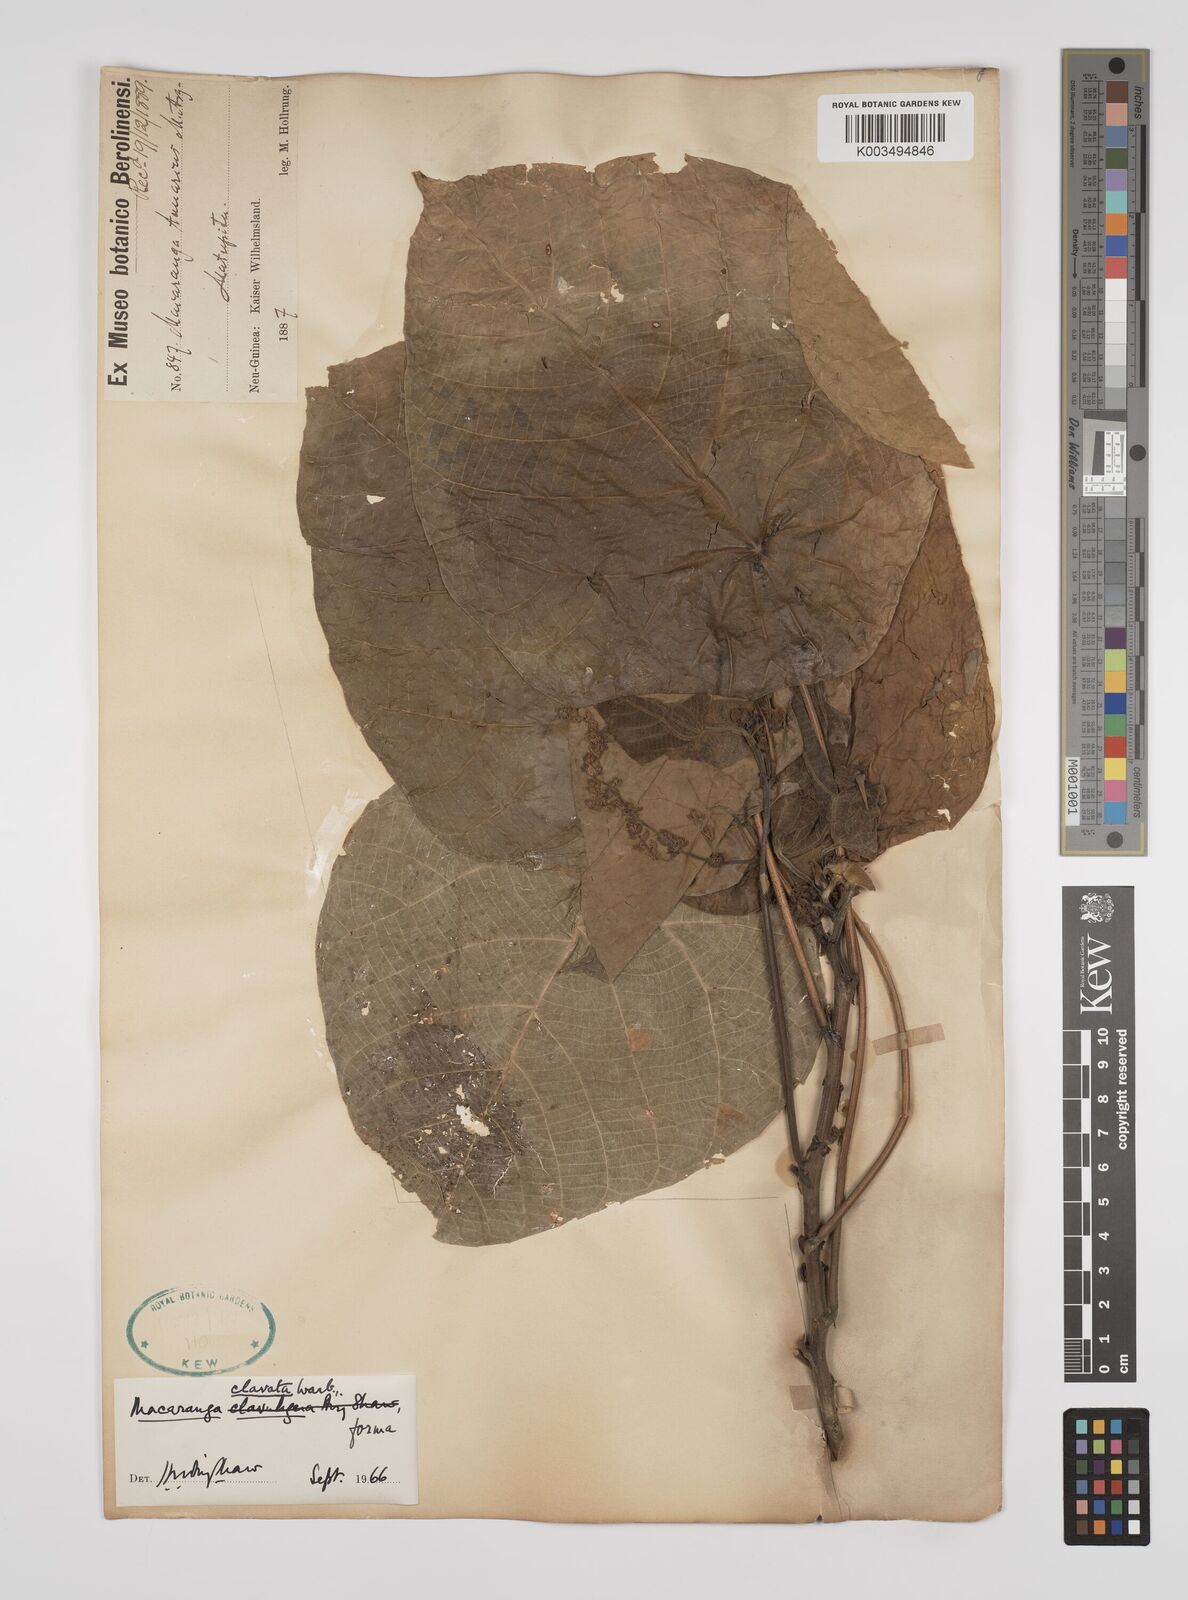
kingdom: Plantae
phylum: Tracheophyta
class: Magnoliopsida
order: Malpighiales
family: Euphorbiaceae
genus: Macaranga
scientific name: Macaranga clavata
